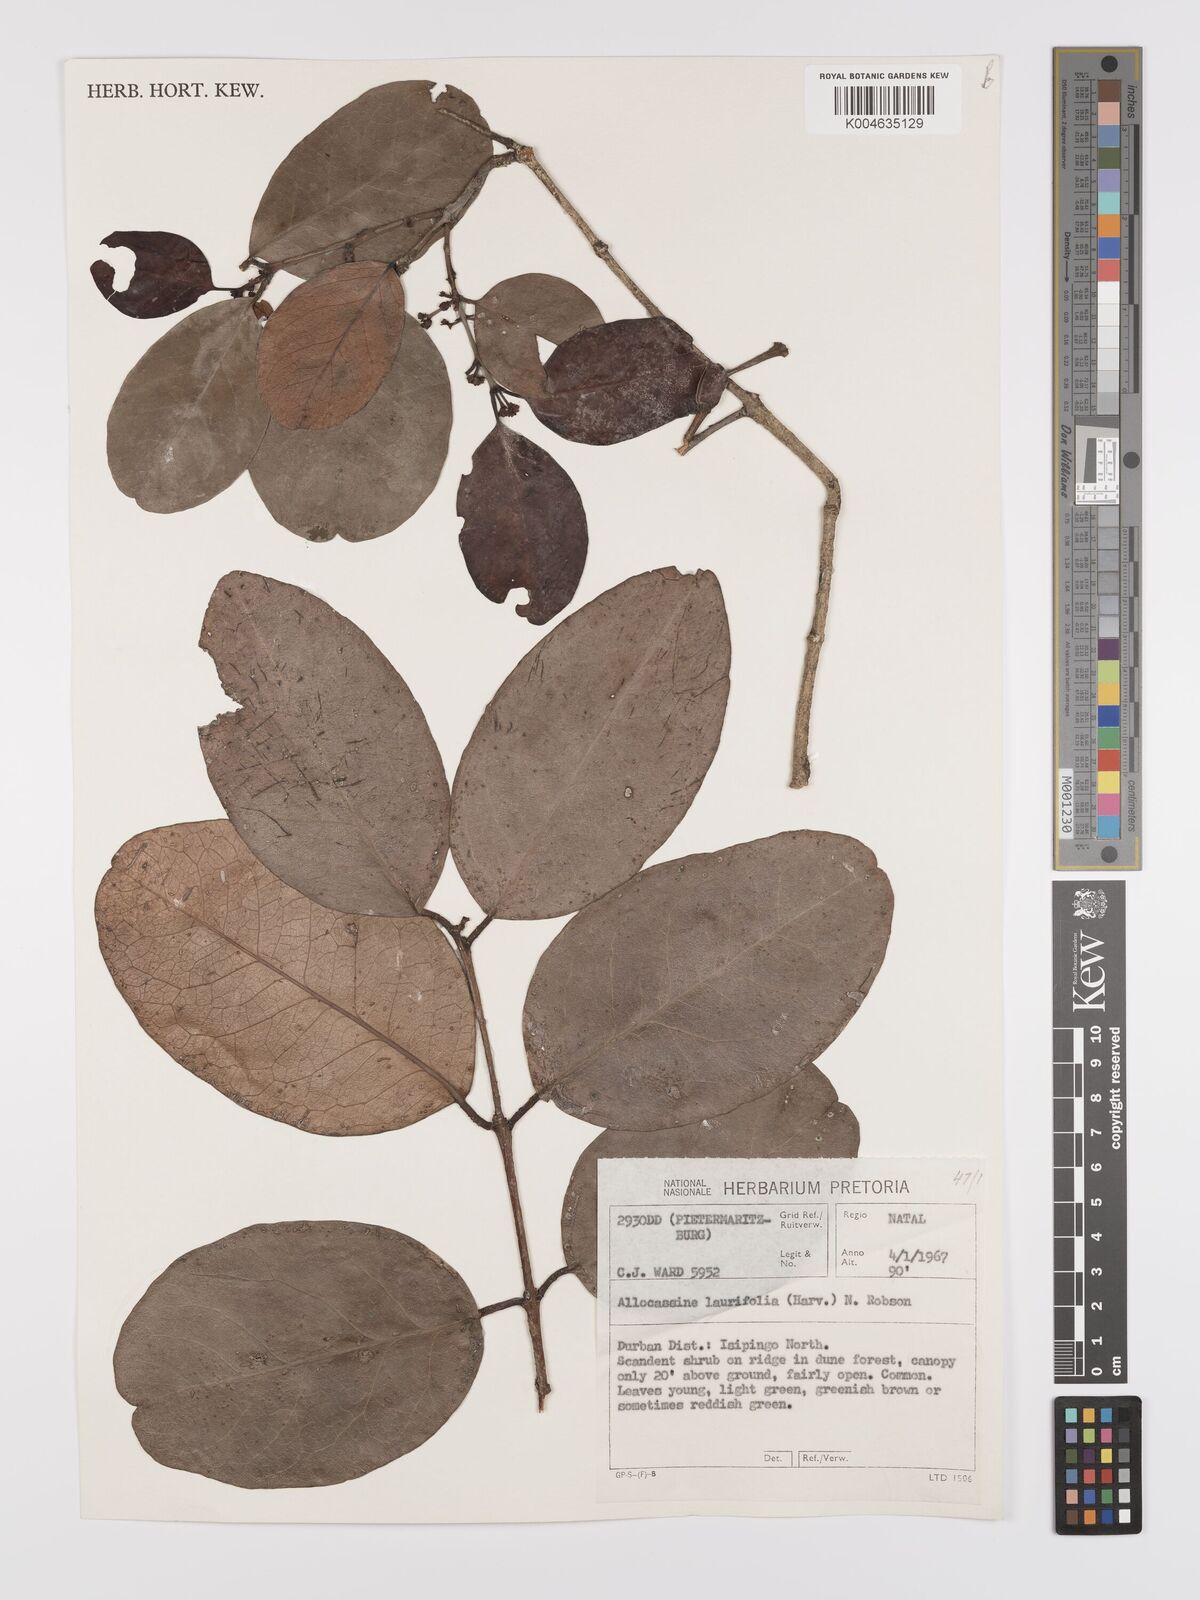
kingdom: Plantae
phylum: Tracheophyta
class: Magnoliopsida
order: Celastrales
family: Celastraceae
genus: Allocassine
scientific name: Allocassine
